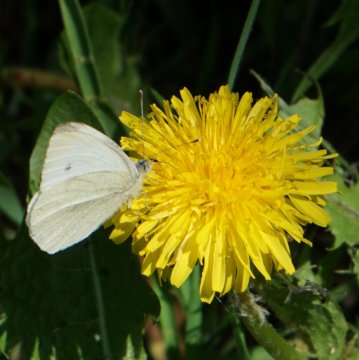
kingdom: Animalia
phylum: Arthropoda
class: Insecta
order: Lepidoptera
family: Pieridae
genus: Pieris
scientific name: Pieris rapae
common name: Cabbage White
